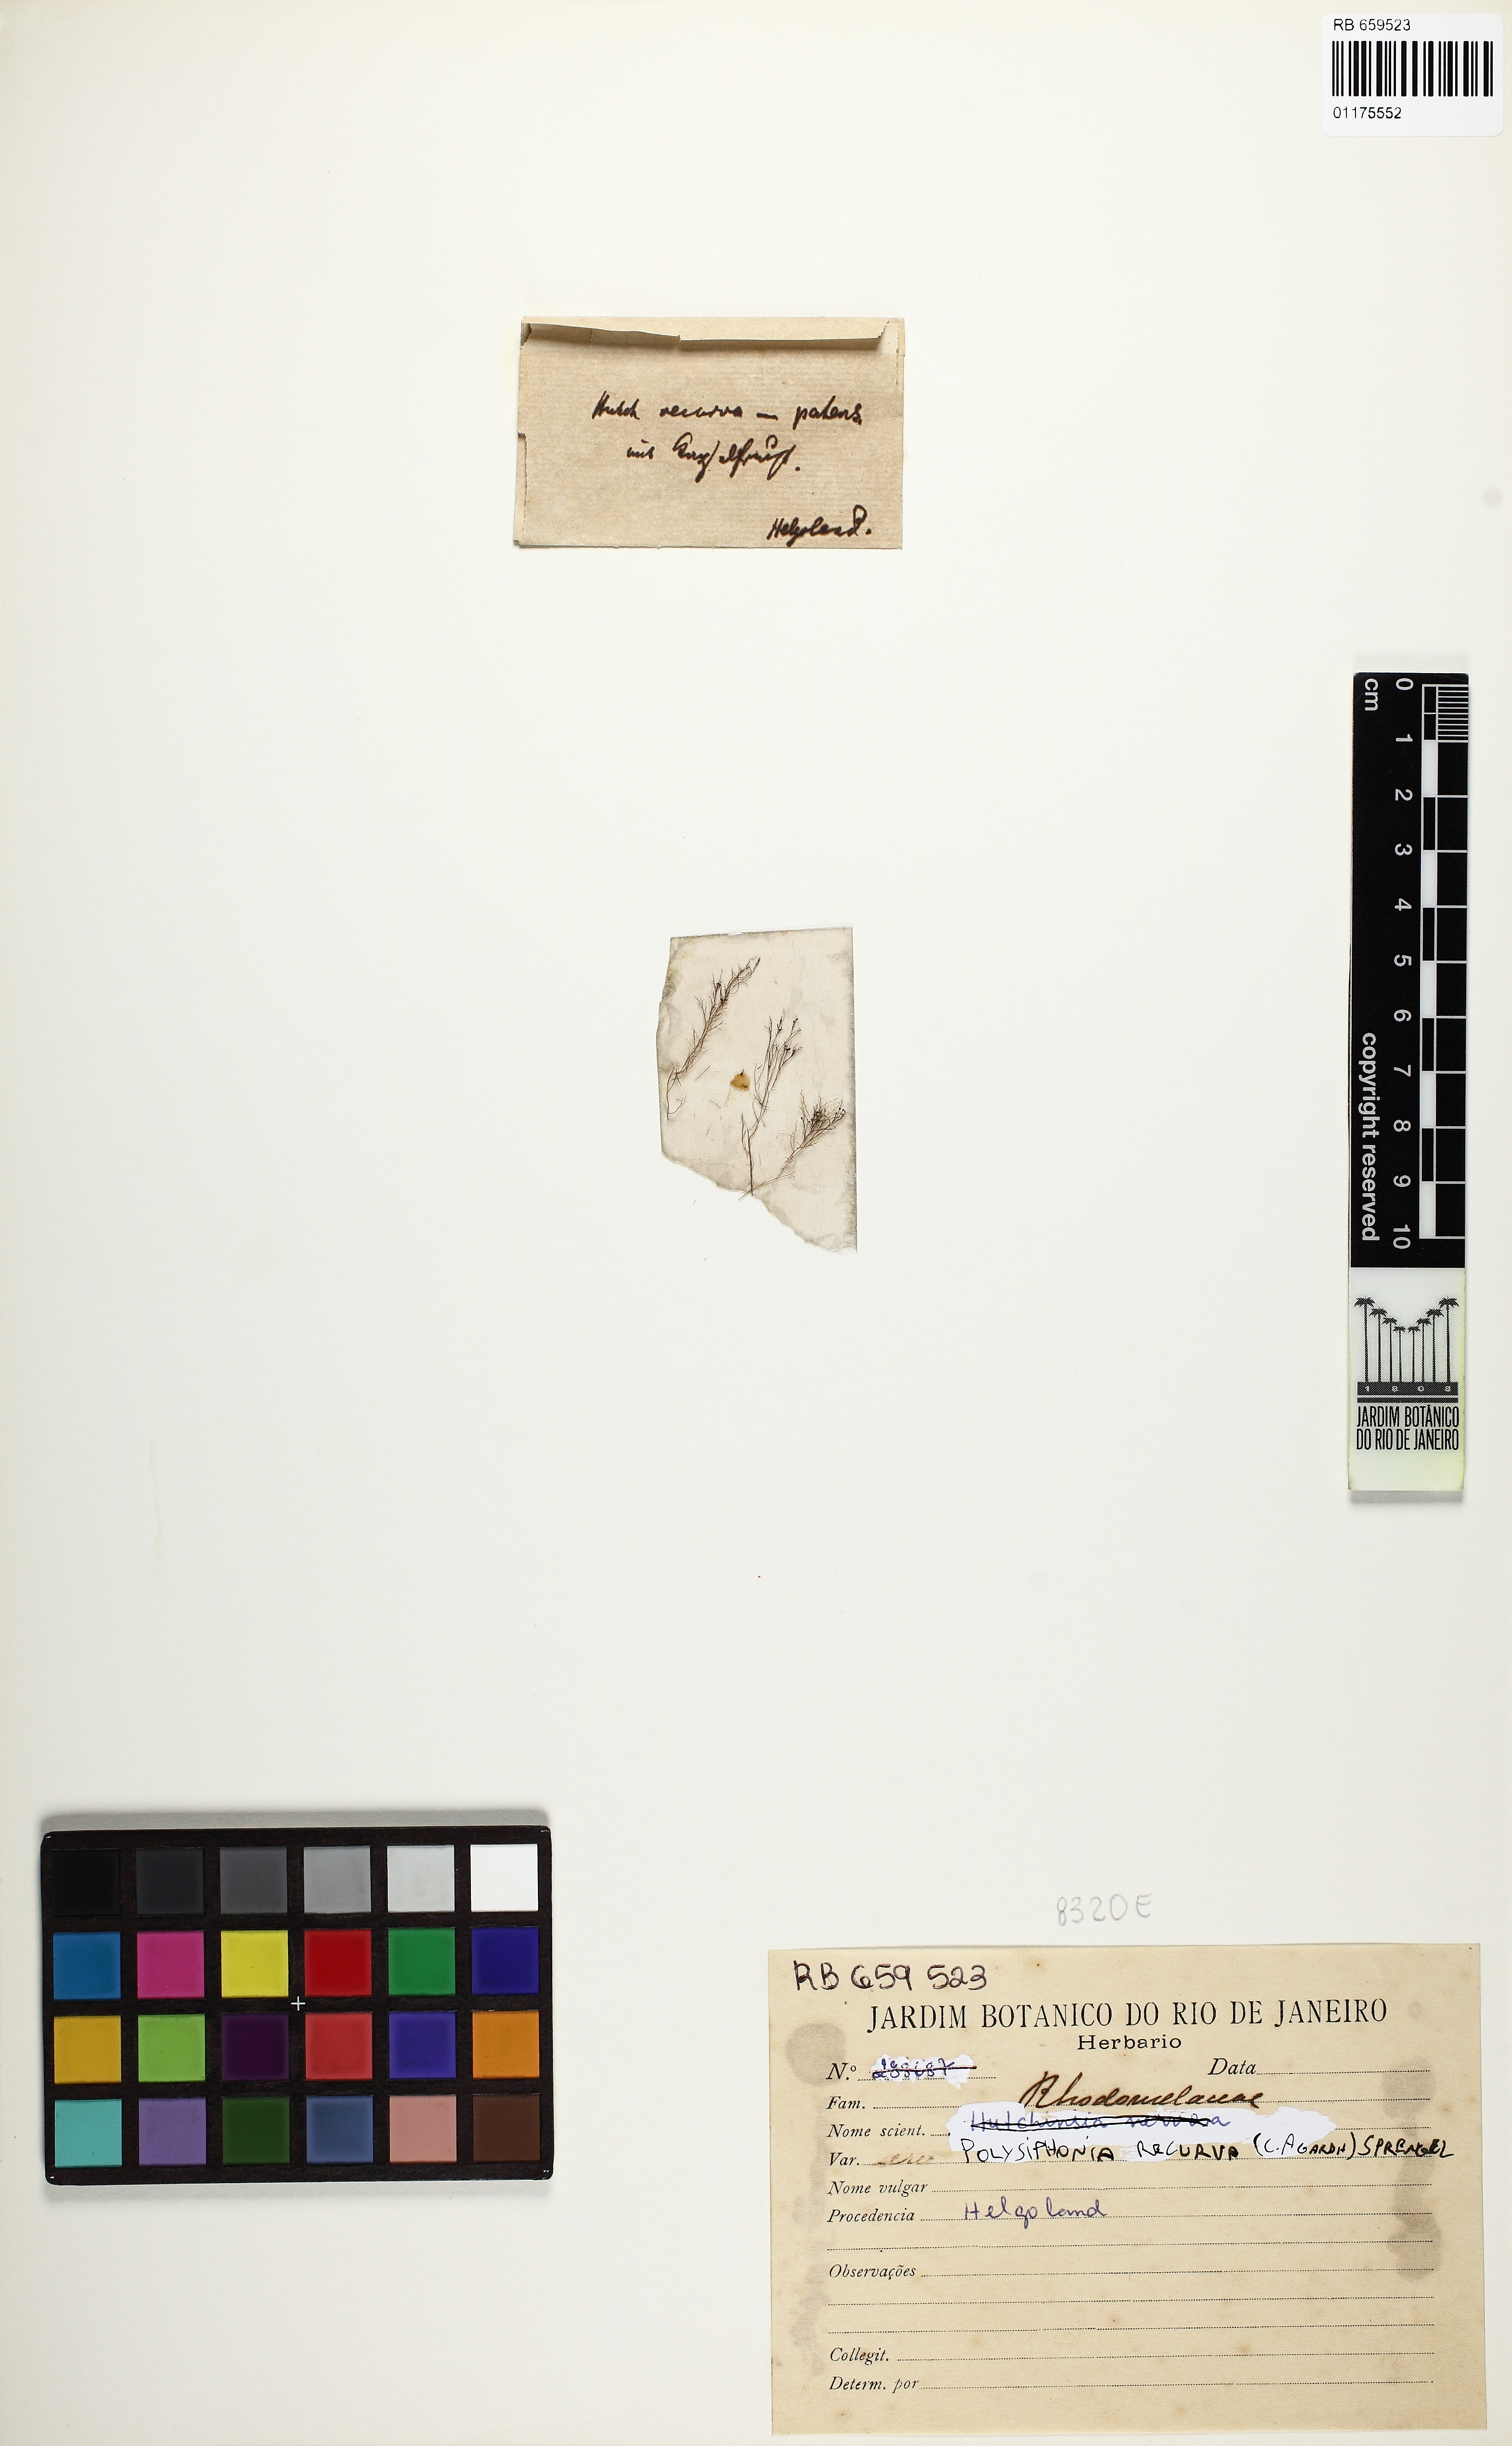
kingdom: Plantae
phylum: Rhodophyta
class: Florideophyceae
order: Ceramiales
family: Rhodomelaceae
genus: Polysiphonia
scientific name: Polysiphonia
